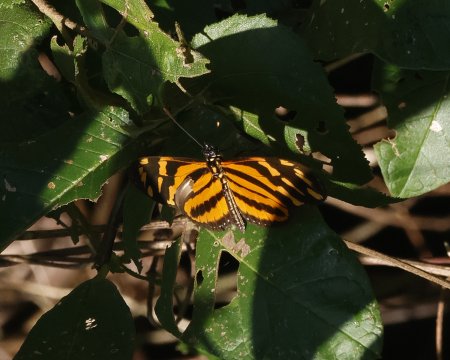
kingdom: Animalia
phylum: Arthropoda
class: Insecta
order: Lepidoptera
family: Nymphalidae
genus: Eueides
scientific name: Eueides isabella
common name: Isabella's Heliconian
